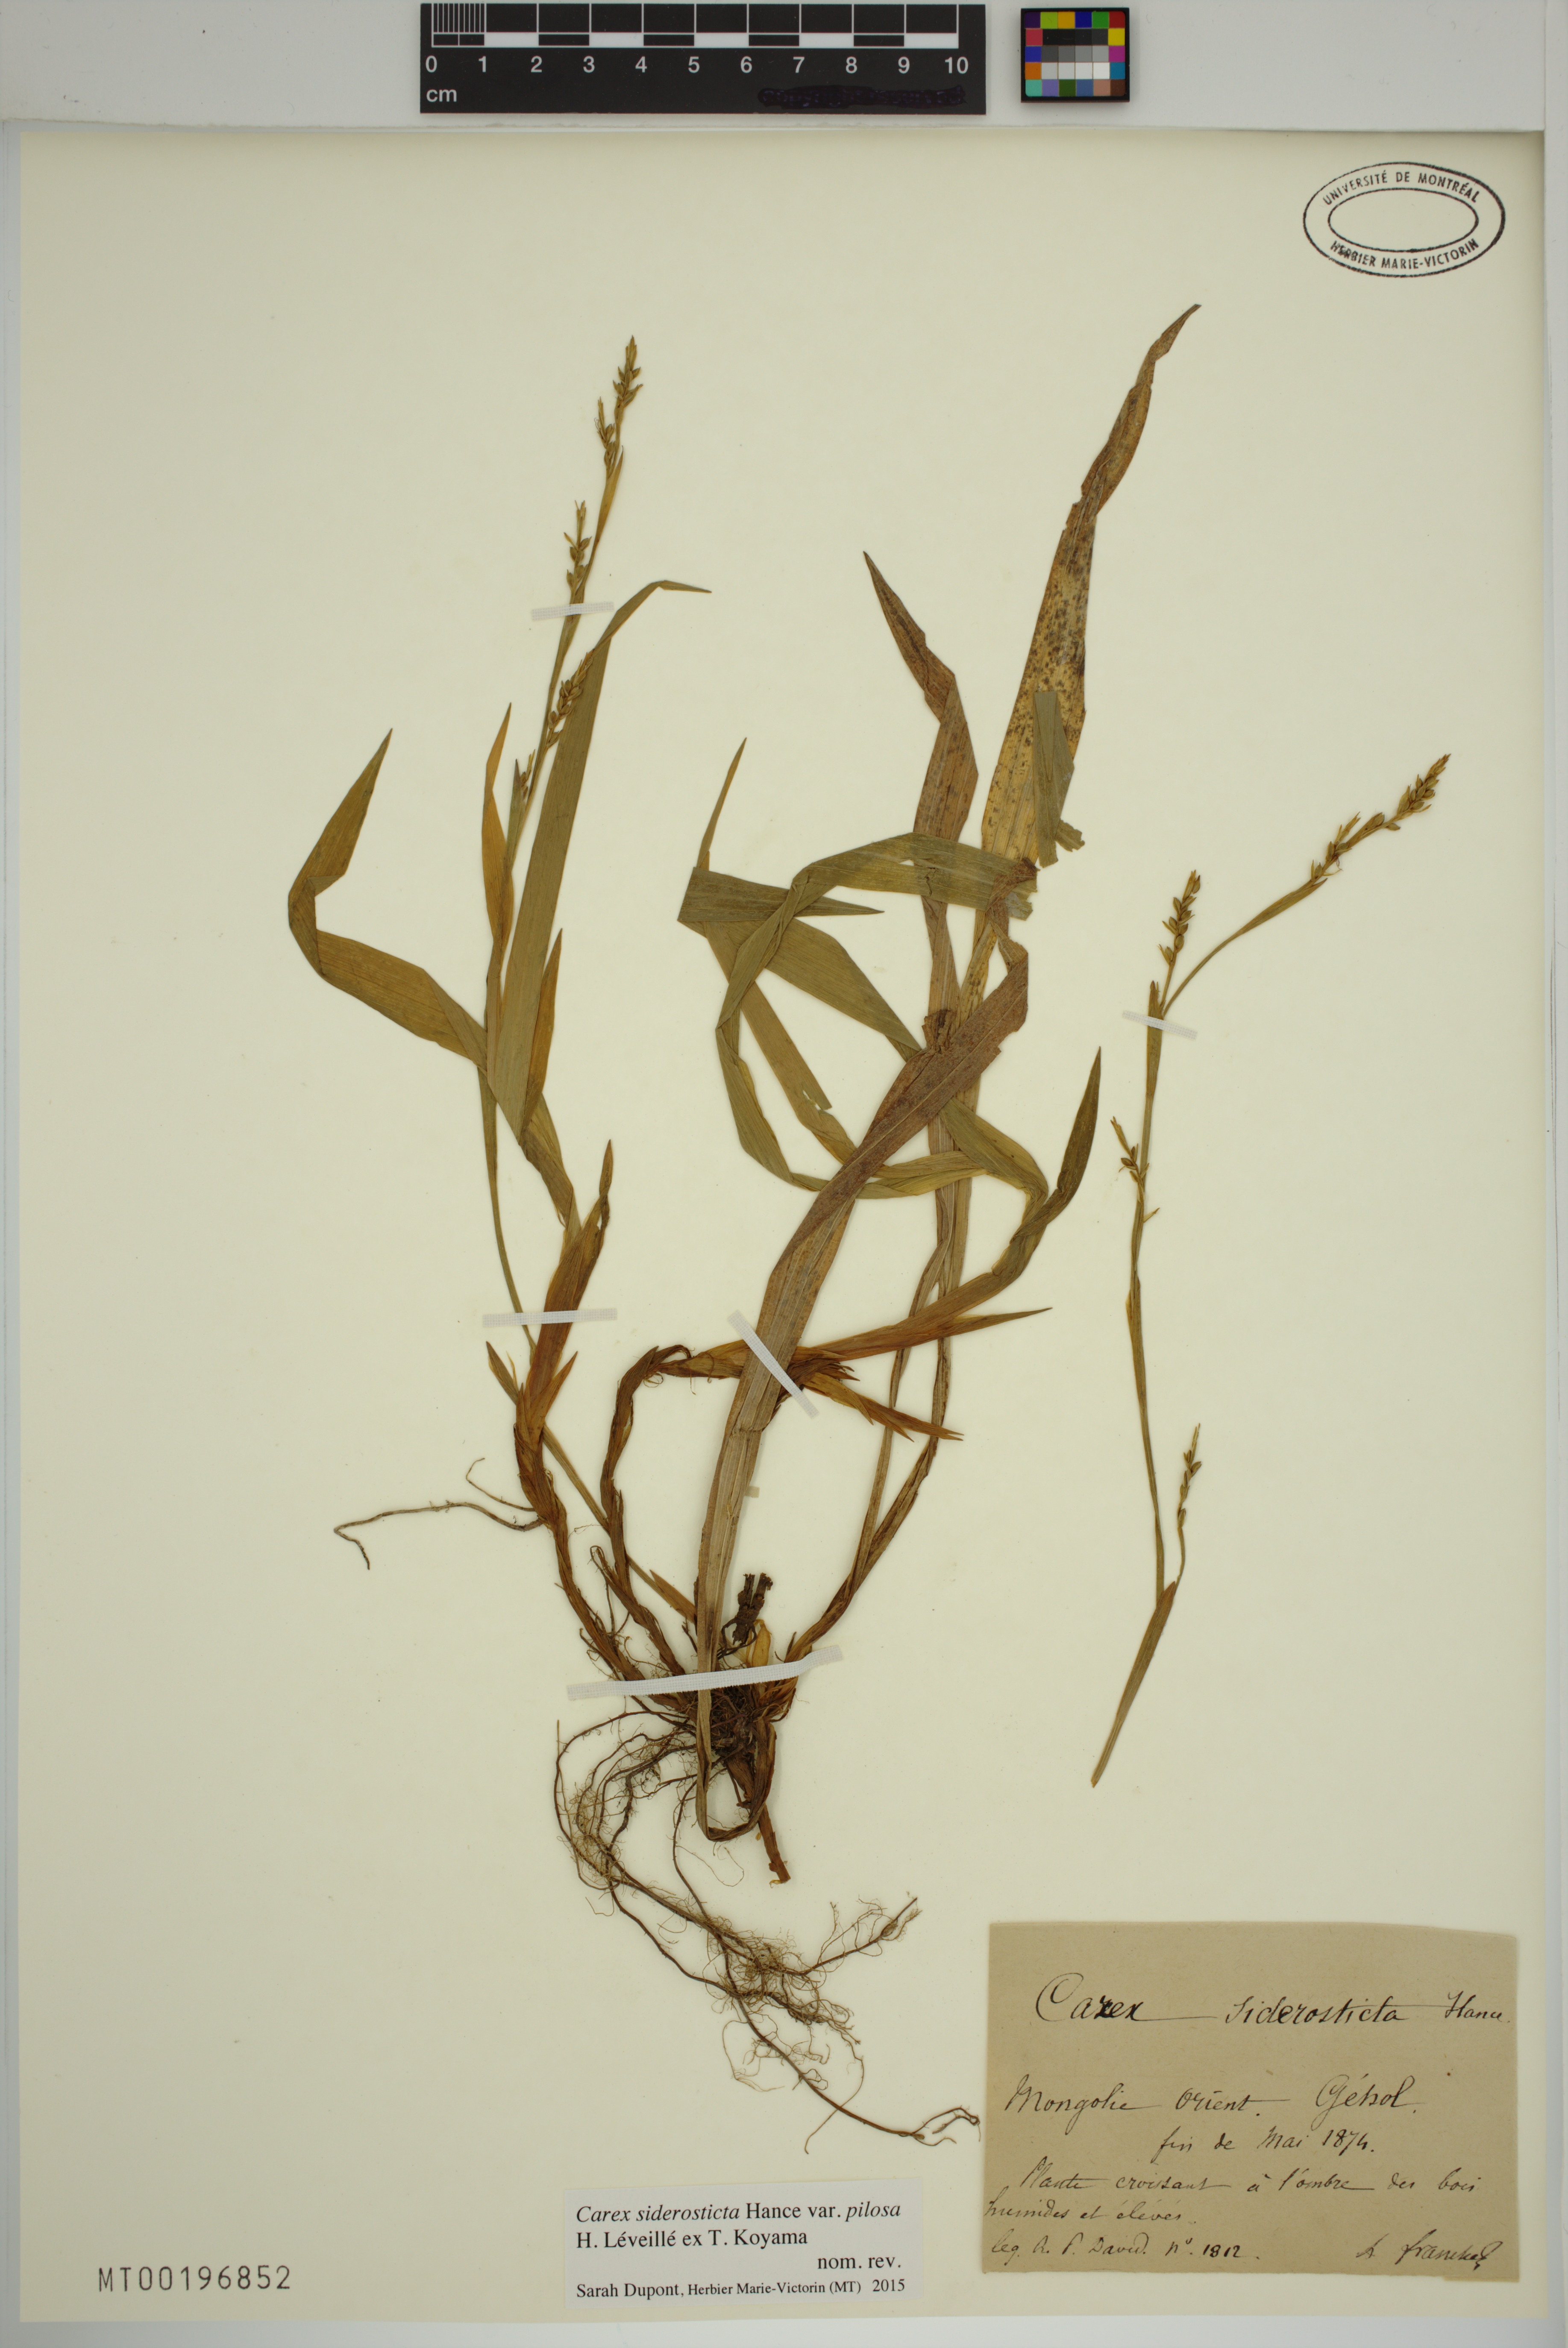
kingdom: Plantae
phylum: Tracheophyta
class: Liliopsida
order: Poales
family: Cyperaceae
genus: Carex
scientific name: Carex siderosticta
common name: Broadleaf sedge
